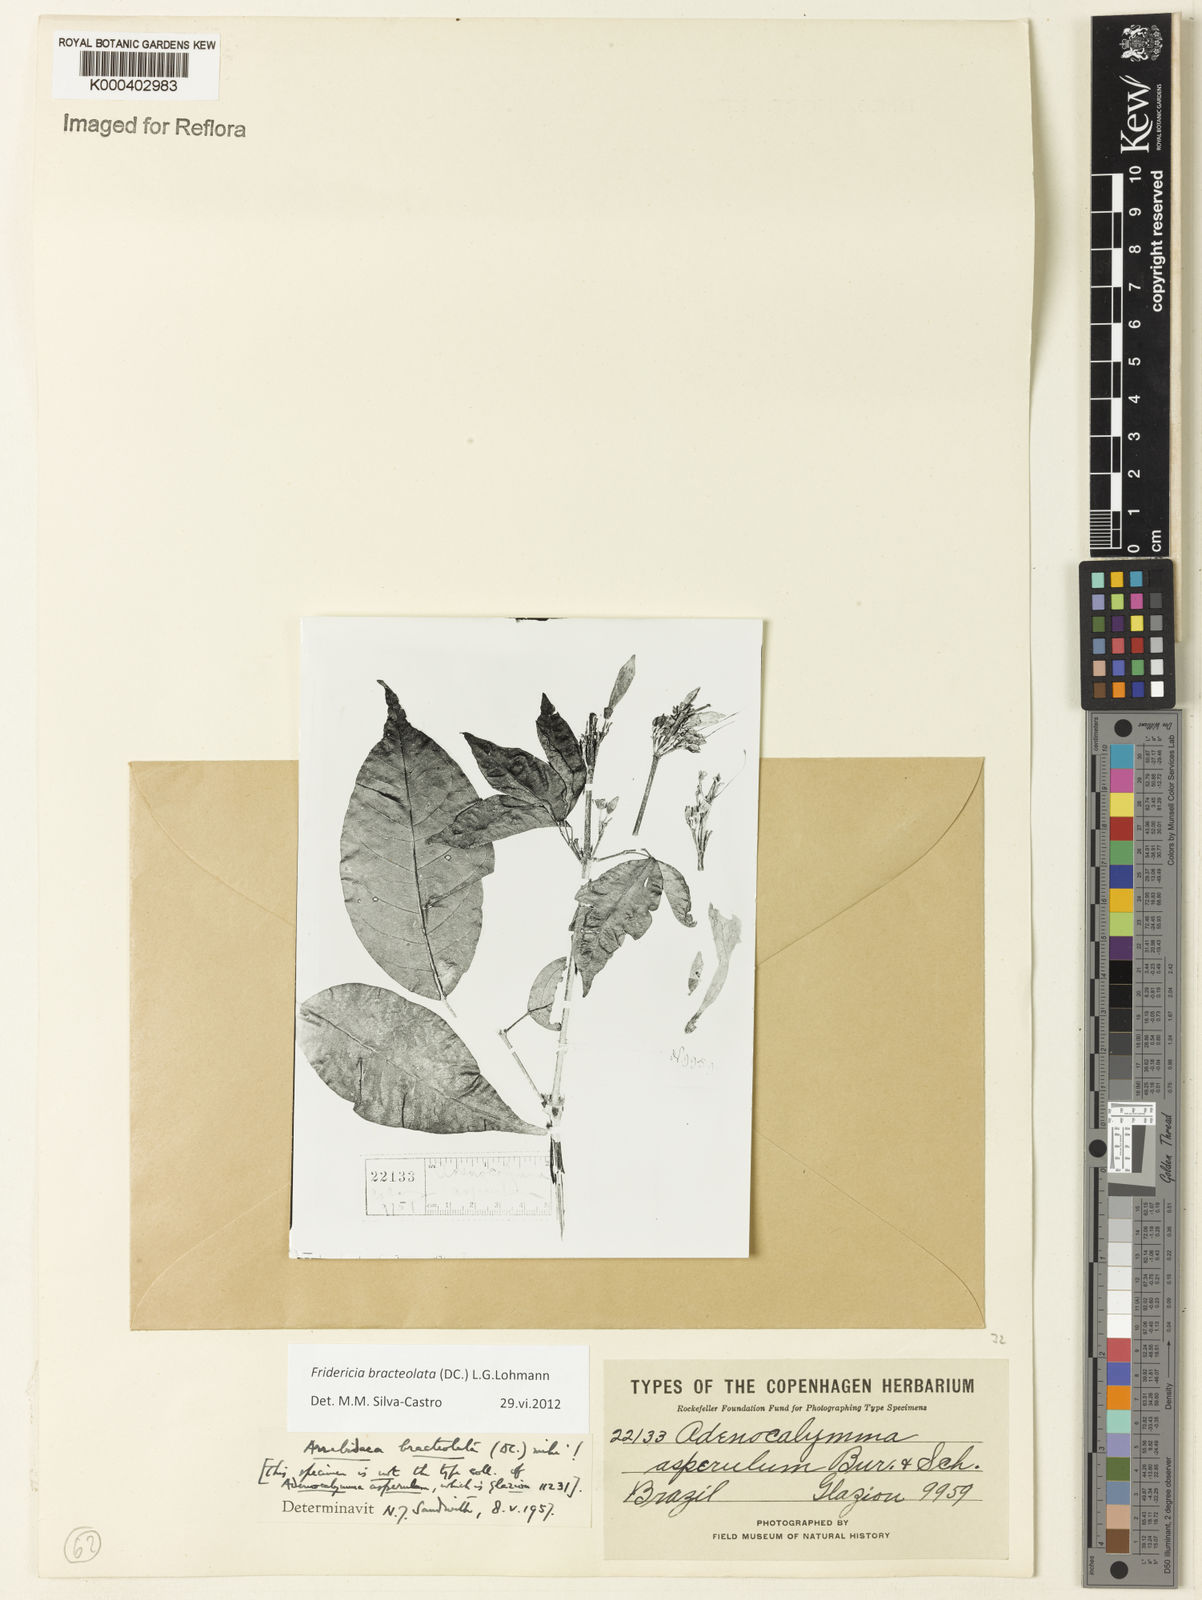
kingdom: Plantae
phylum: Tracheophyta
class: Magnoliopsida
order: Lamiales
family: Bignoniaceae
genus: Cuspidaria
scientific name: Cuspidaria bracteolata
